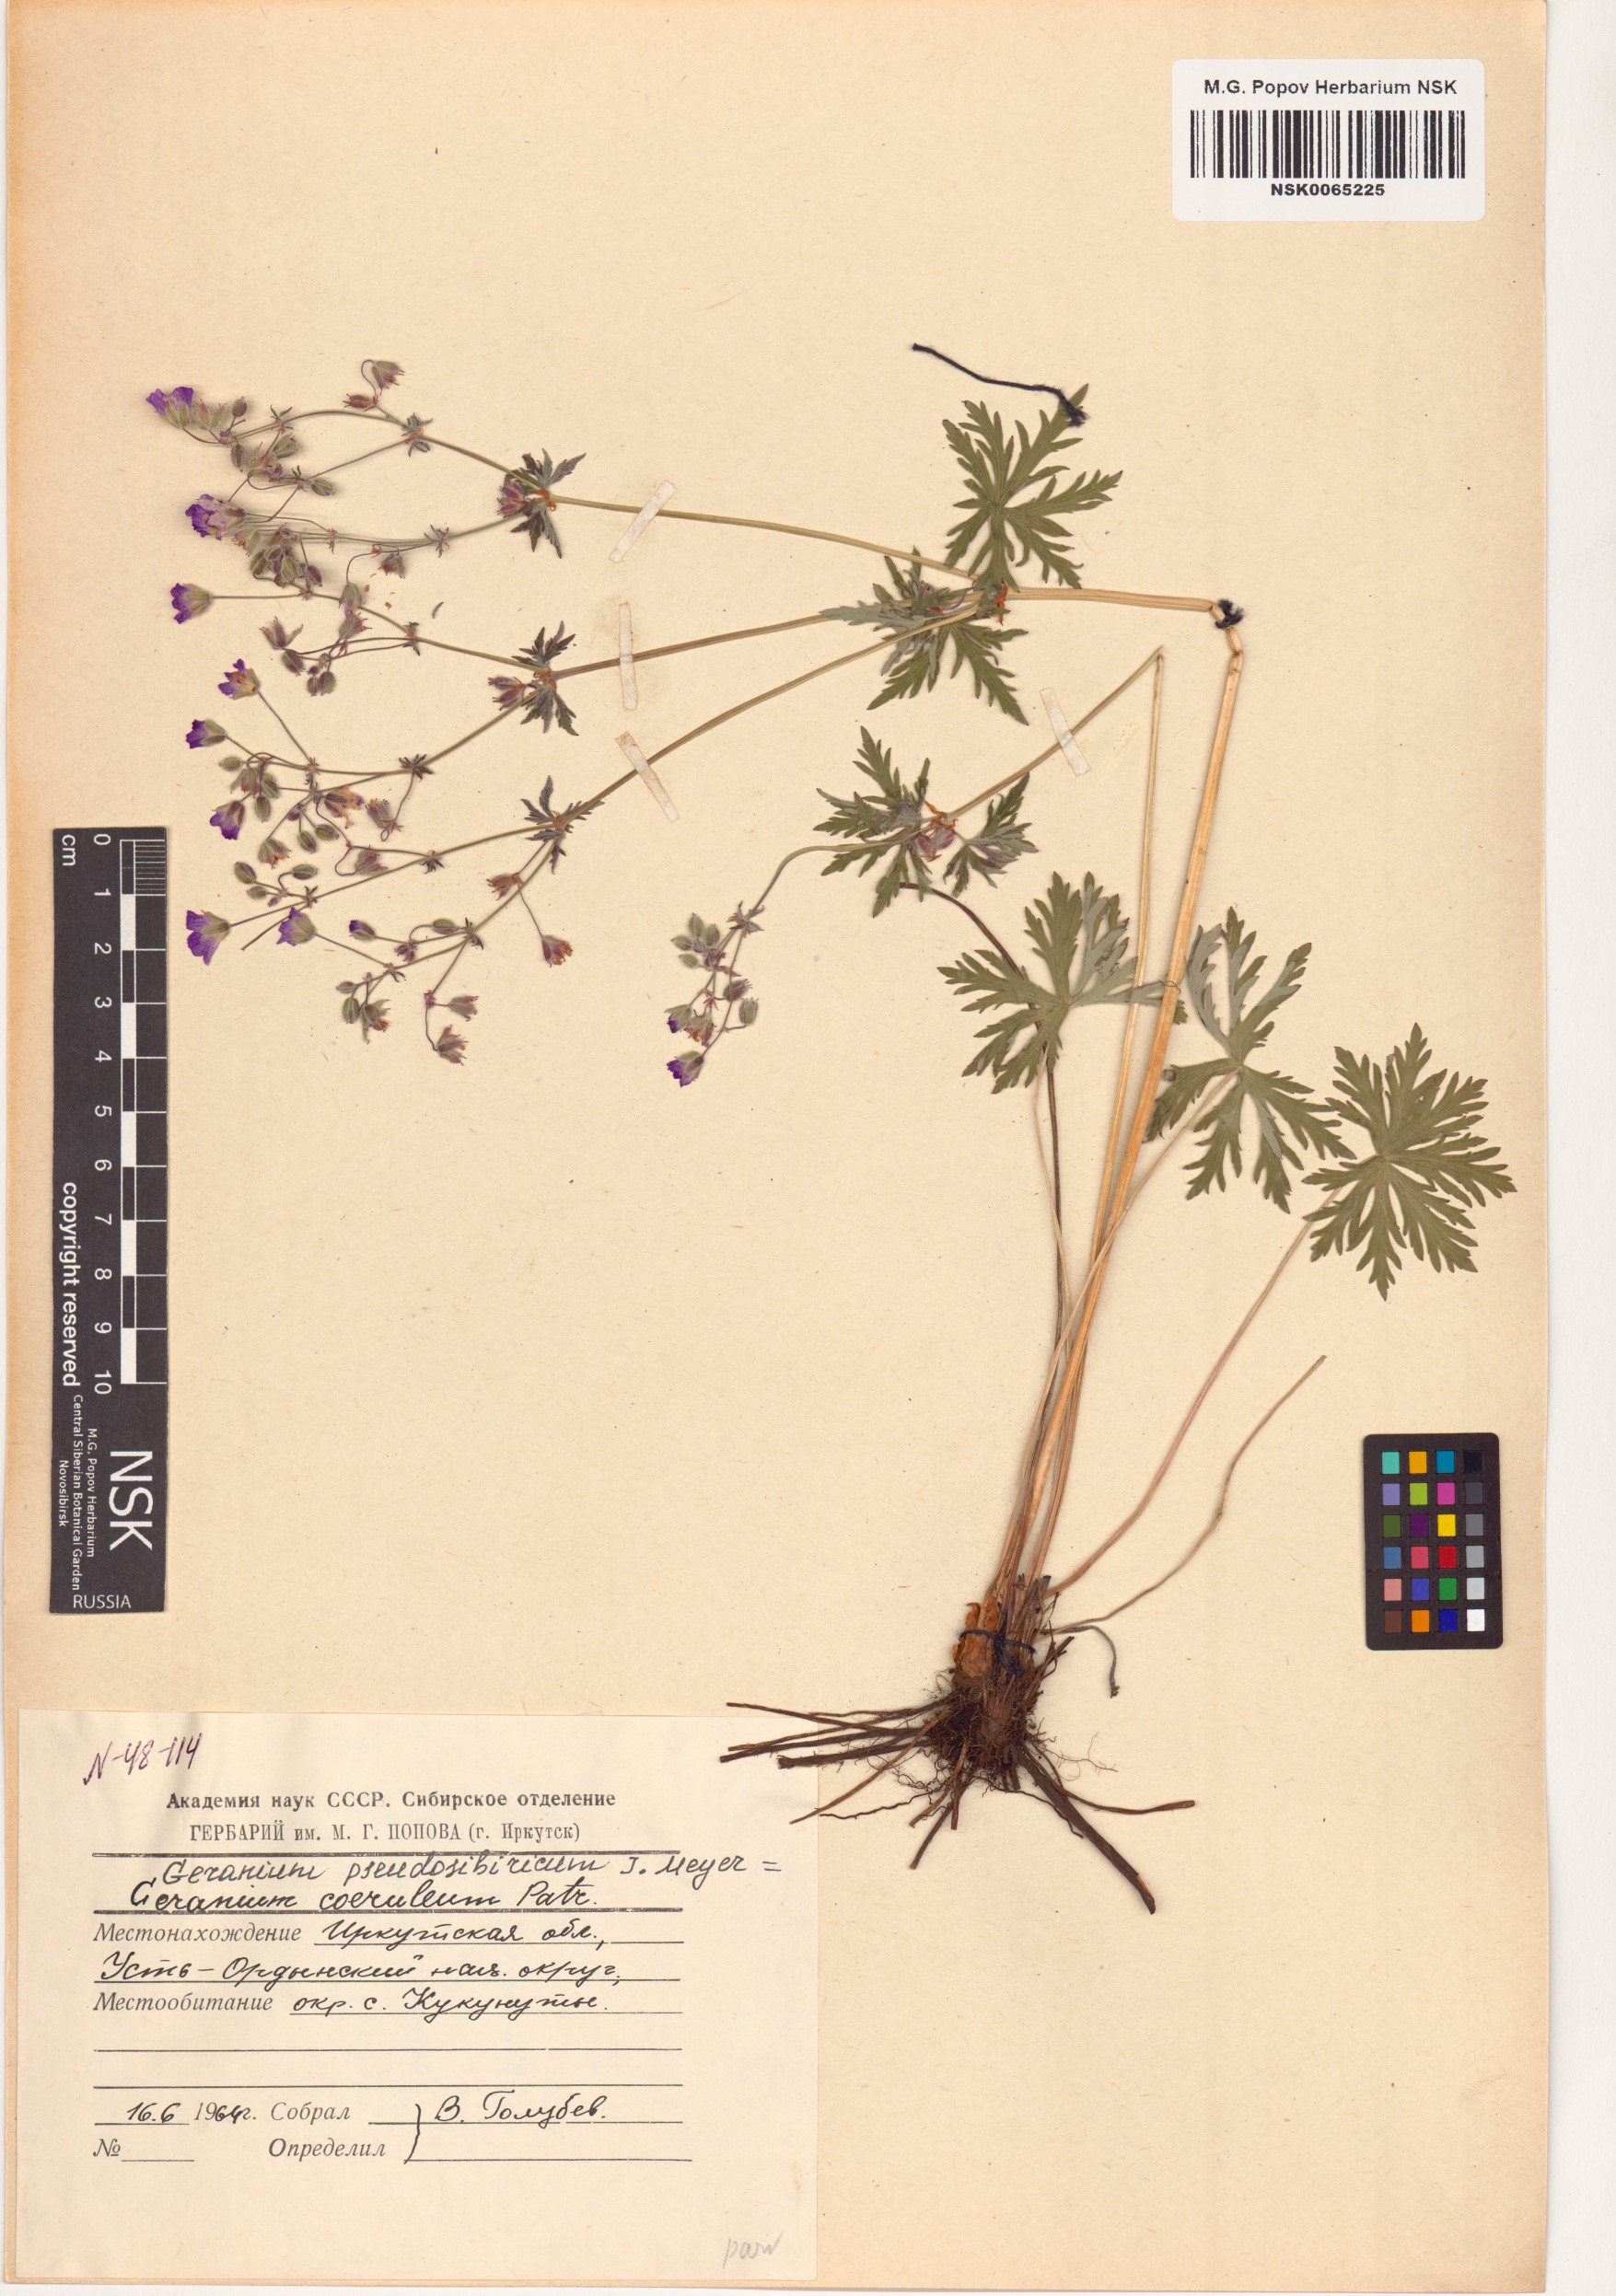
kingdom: Plantae
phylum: Tracheophyta
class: Magnoliopsida
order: Geraniales
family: Geraniaceae
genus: Geranium
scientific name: Geranium pseudosibiricum
